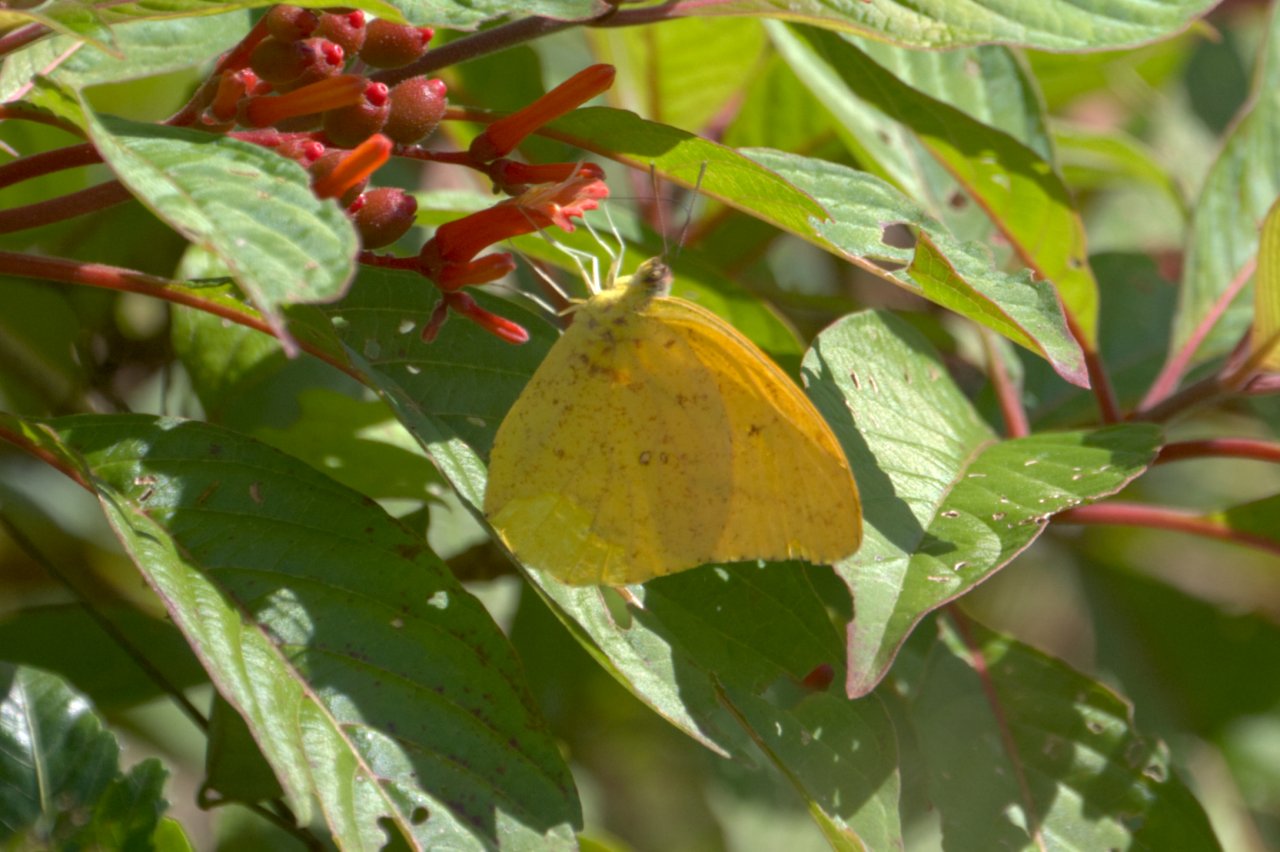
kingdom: Animalia
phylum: Arthropoda
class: Insecta
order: Lepidoptera
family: Pieridae
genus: Phoebis
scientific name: Phoebis agarithe
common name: Large Orange Sulphur
